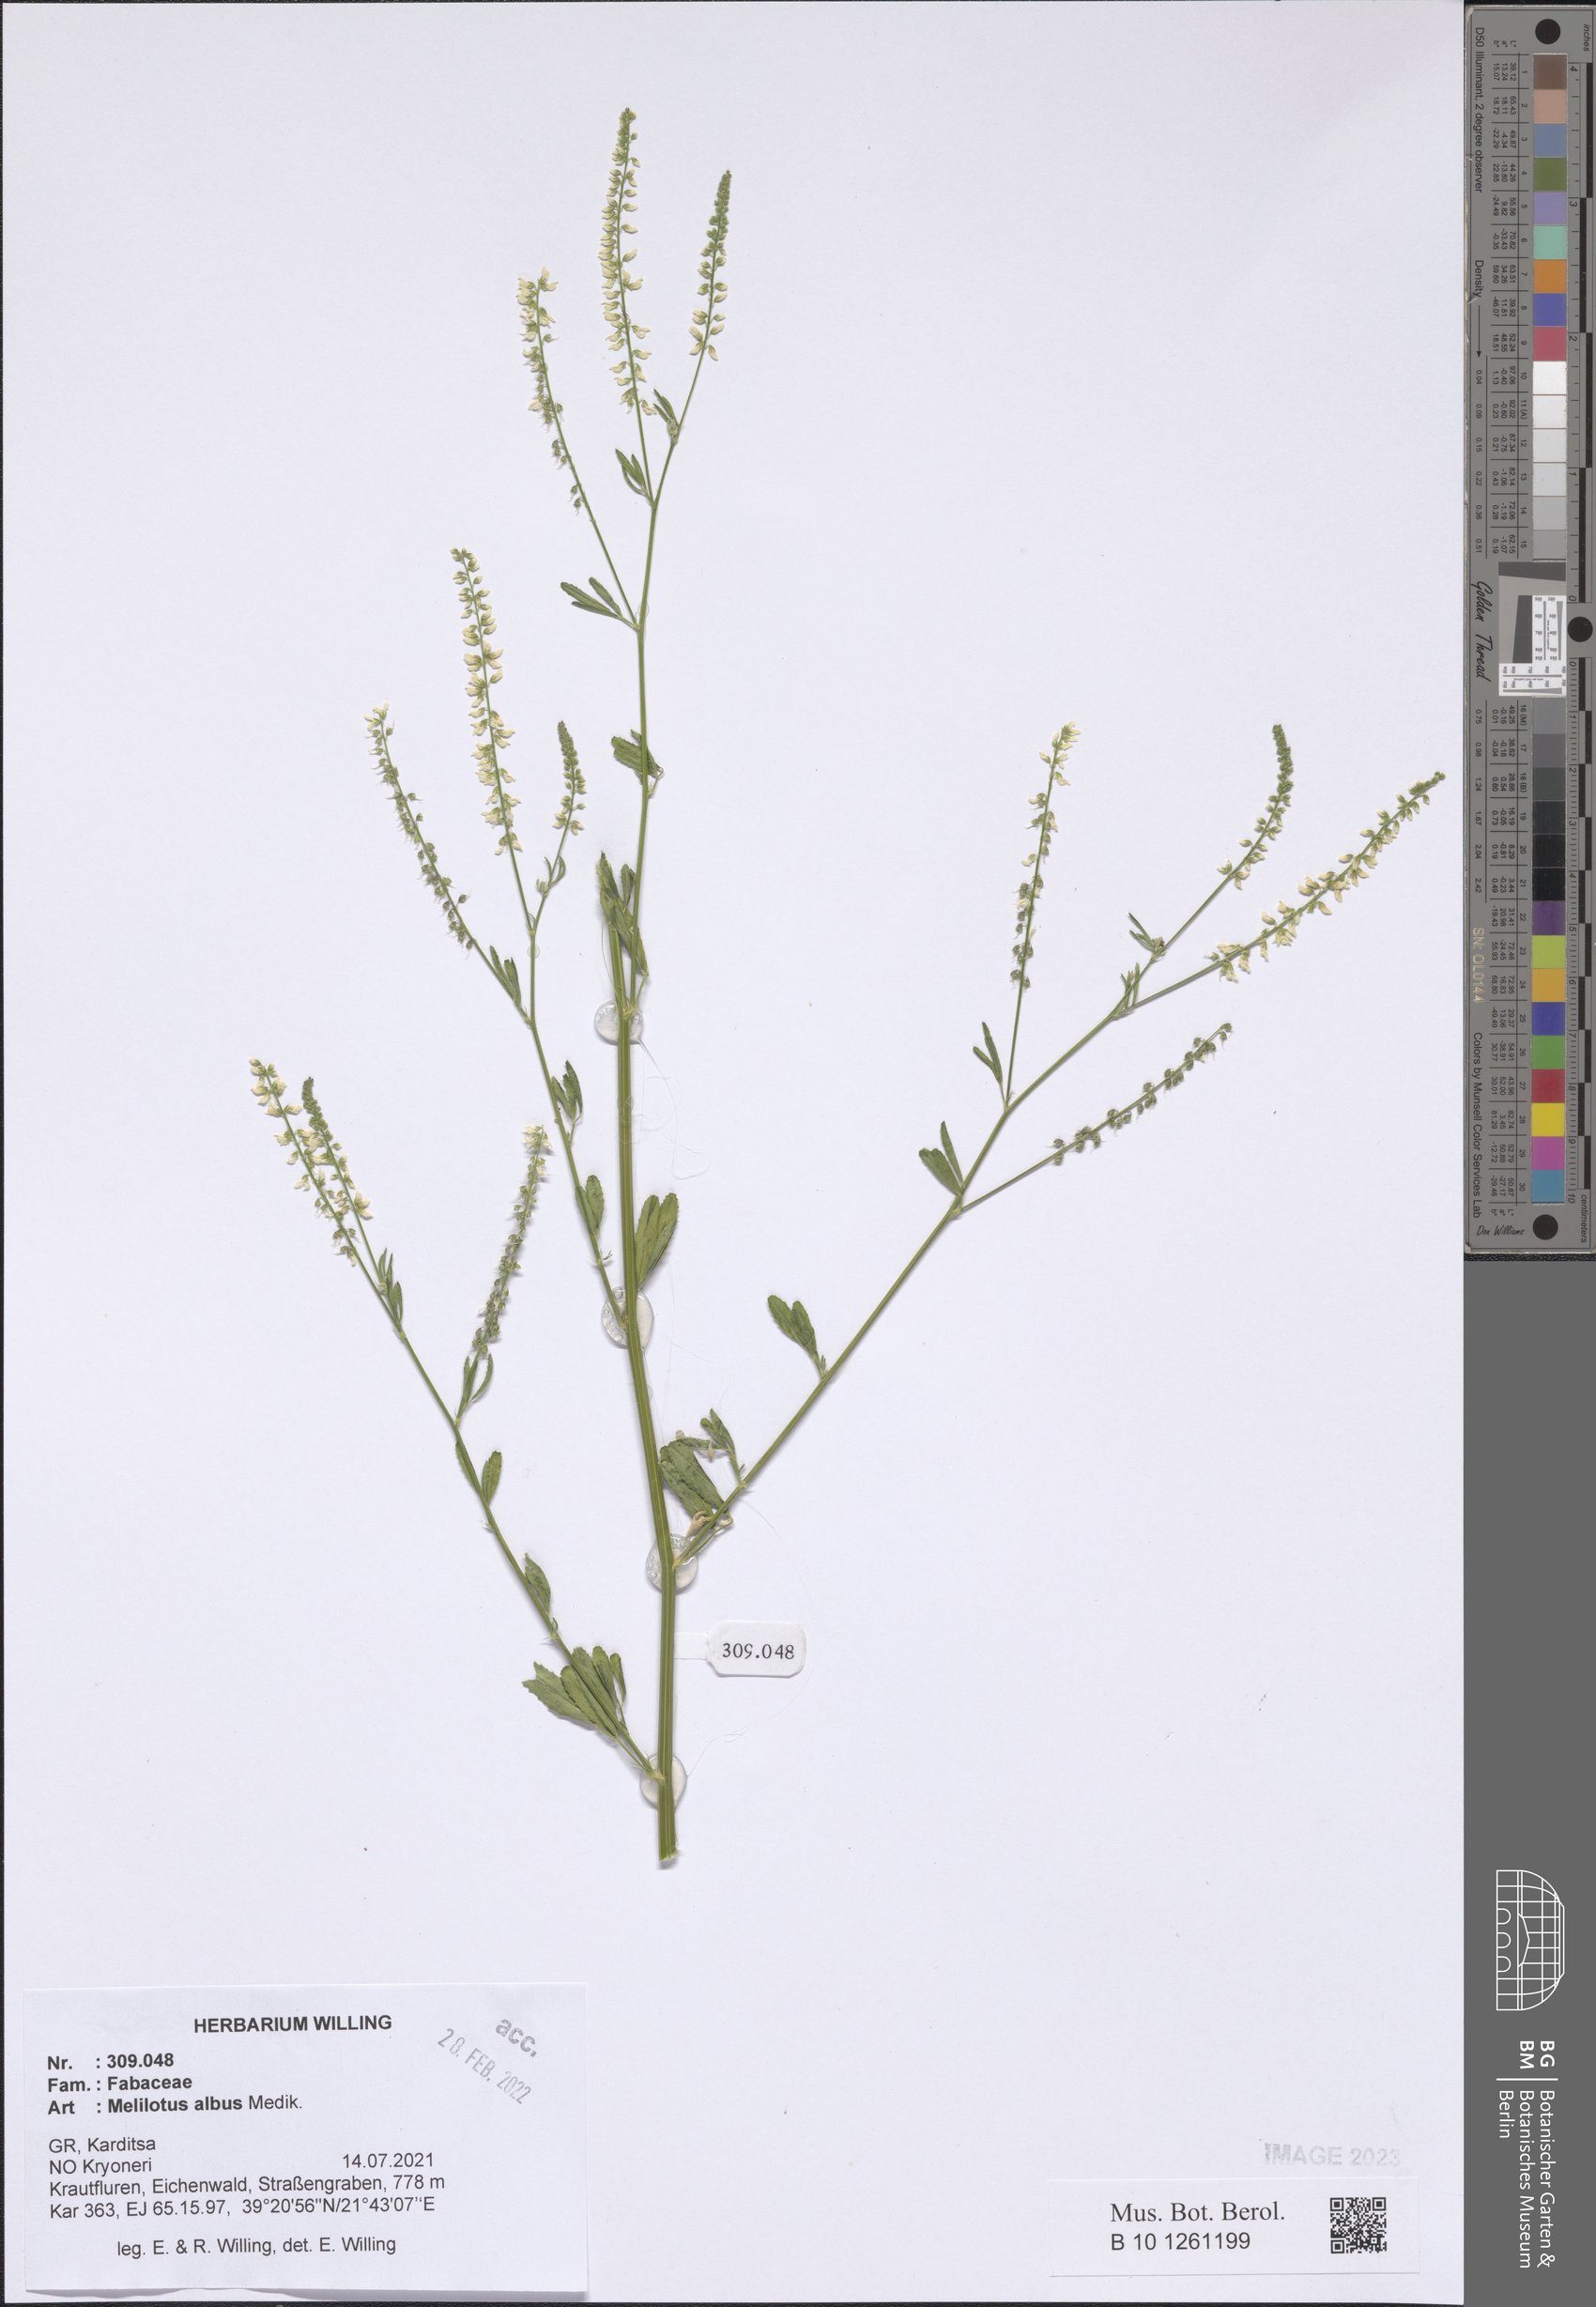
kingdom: Plantae
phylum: Tracheophyta
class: Magnoliopsida
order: Fabales
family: Fabaceae
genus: Melilotus
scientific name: Melilotus albus
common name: White melilot
